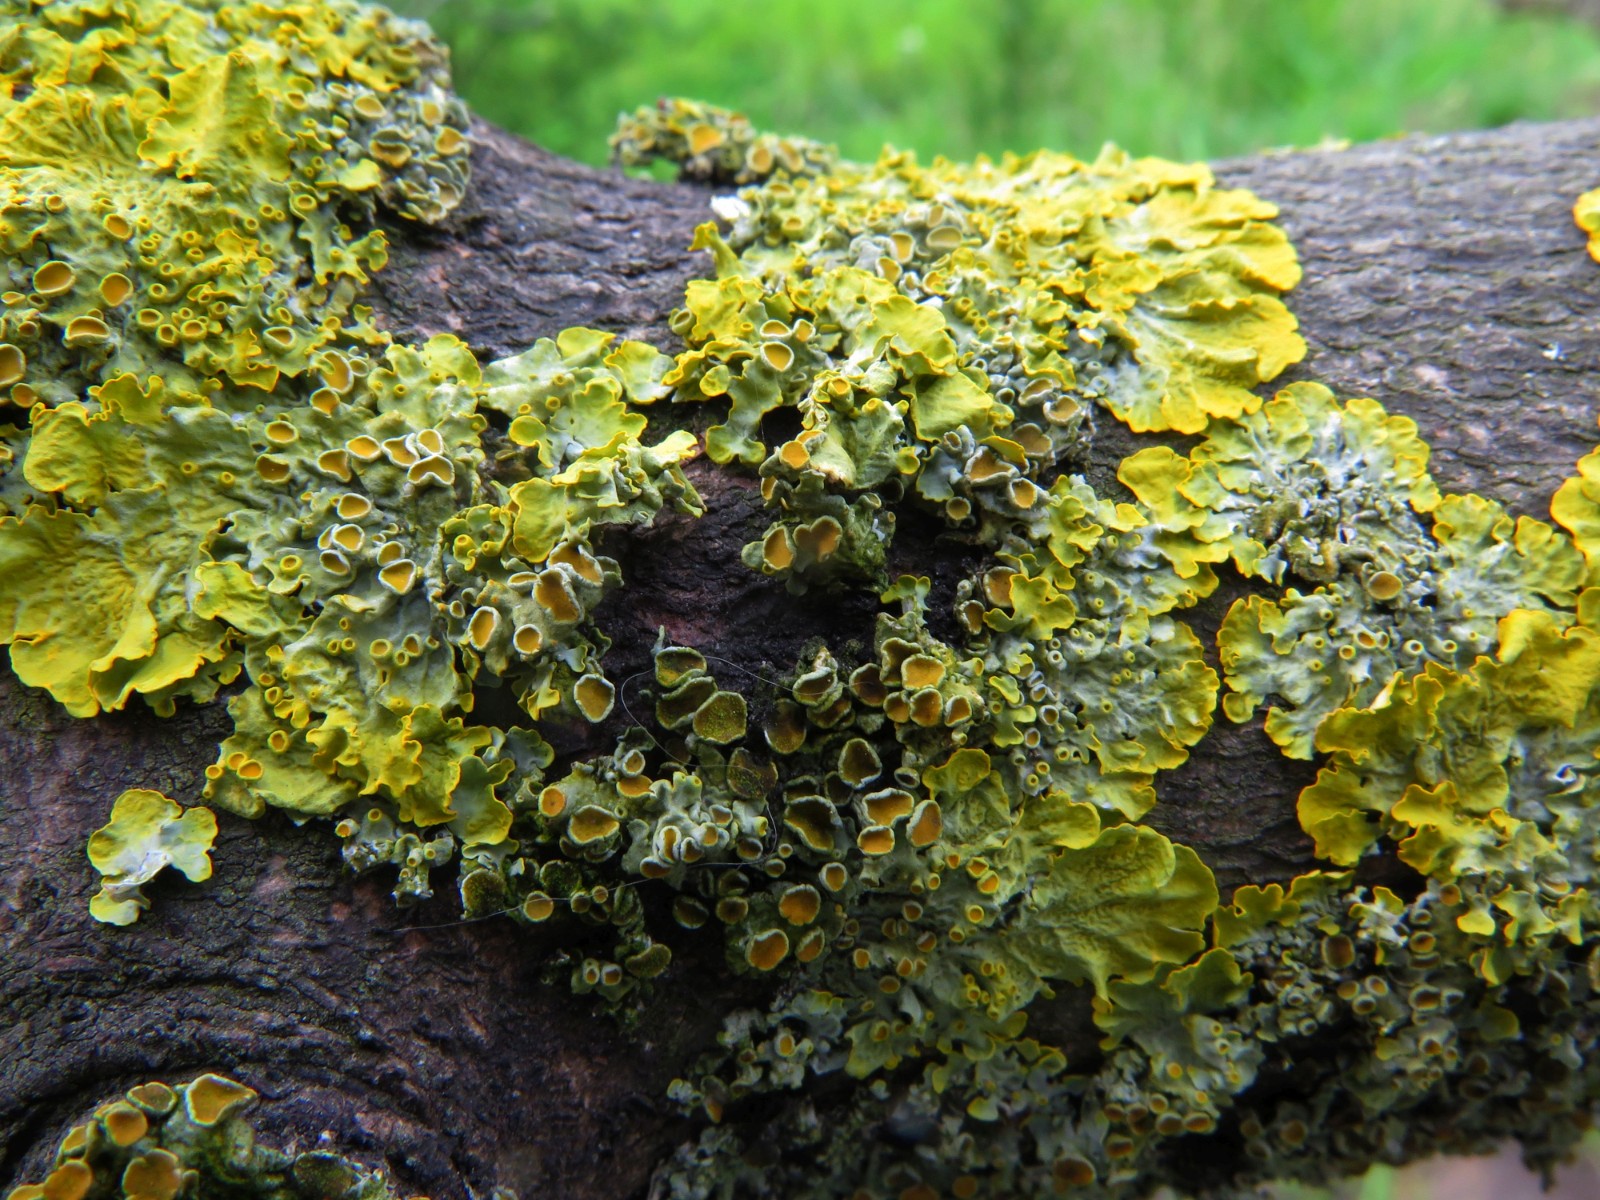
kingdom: Fungi
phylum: Ascomycota
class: Lecanoromycetes
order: Teloschistales
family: Teloschistaceae
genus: Xanthoria
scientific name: Xanthoria parietina
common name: almindelig væggelav
